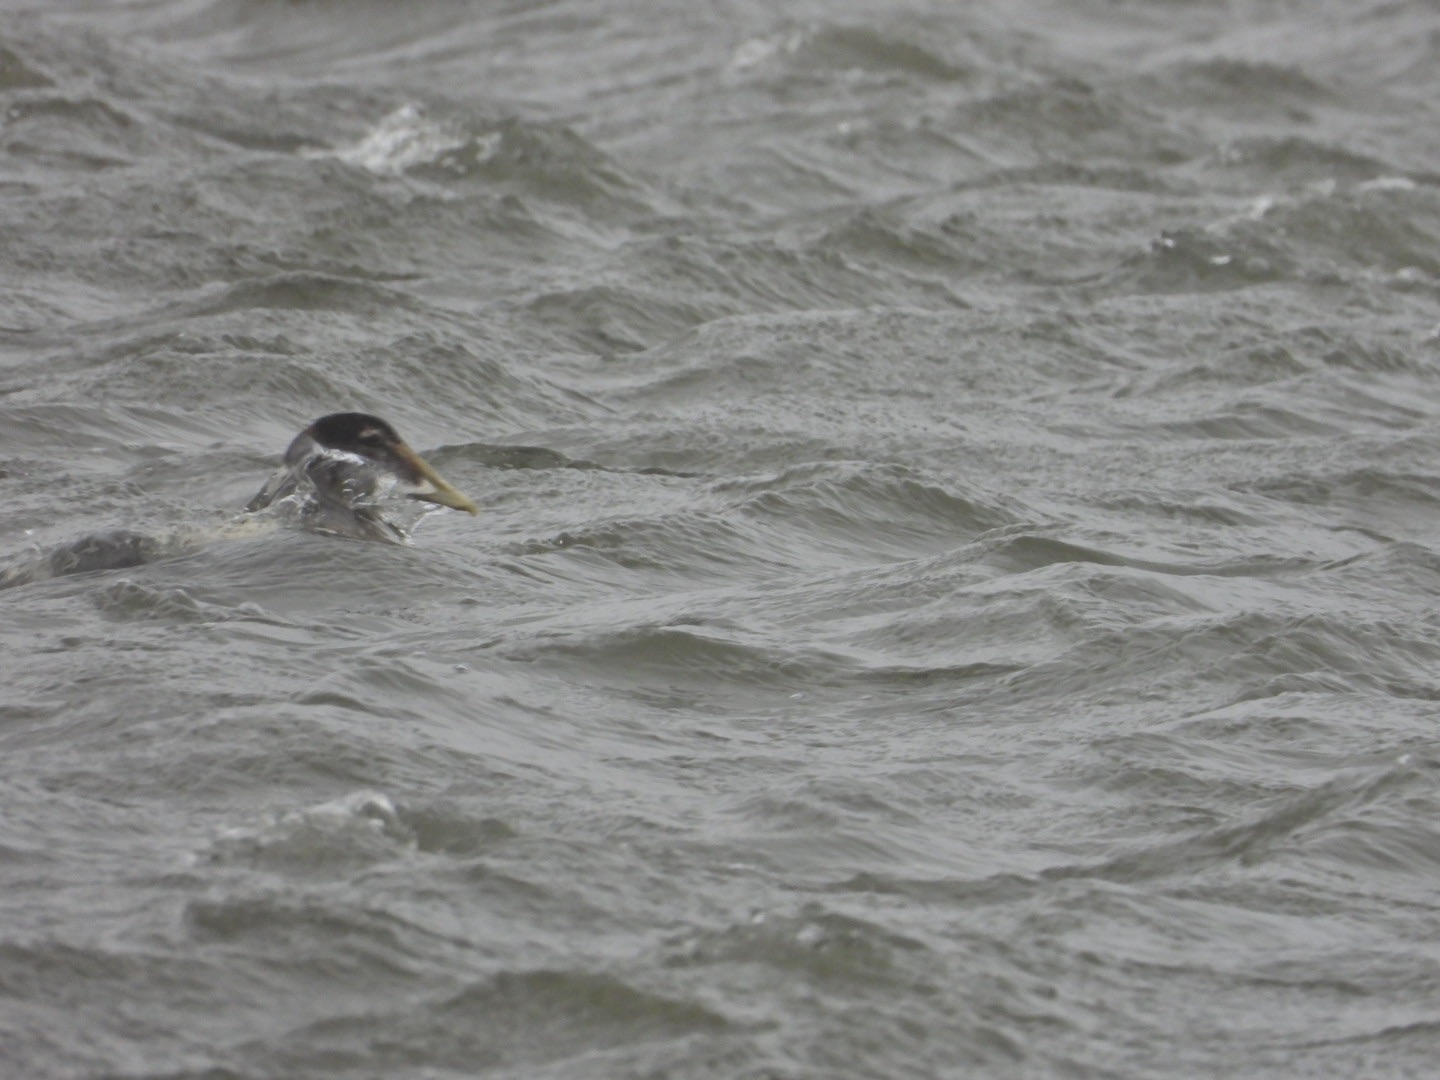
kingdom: Animalia
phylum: Chordata
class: Aves
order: Anseriformes
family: Anatidae
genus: Somateria
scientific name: Somateria mollissima
